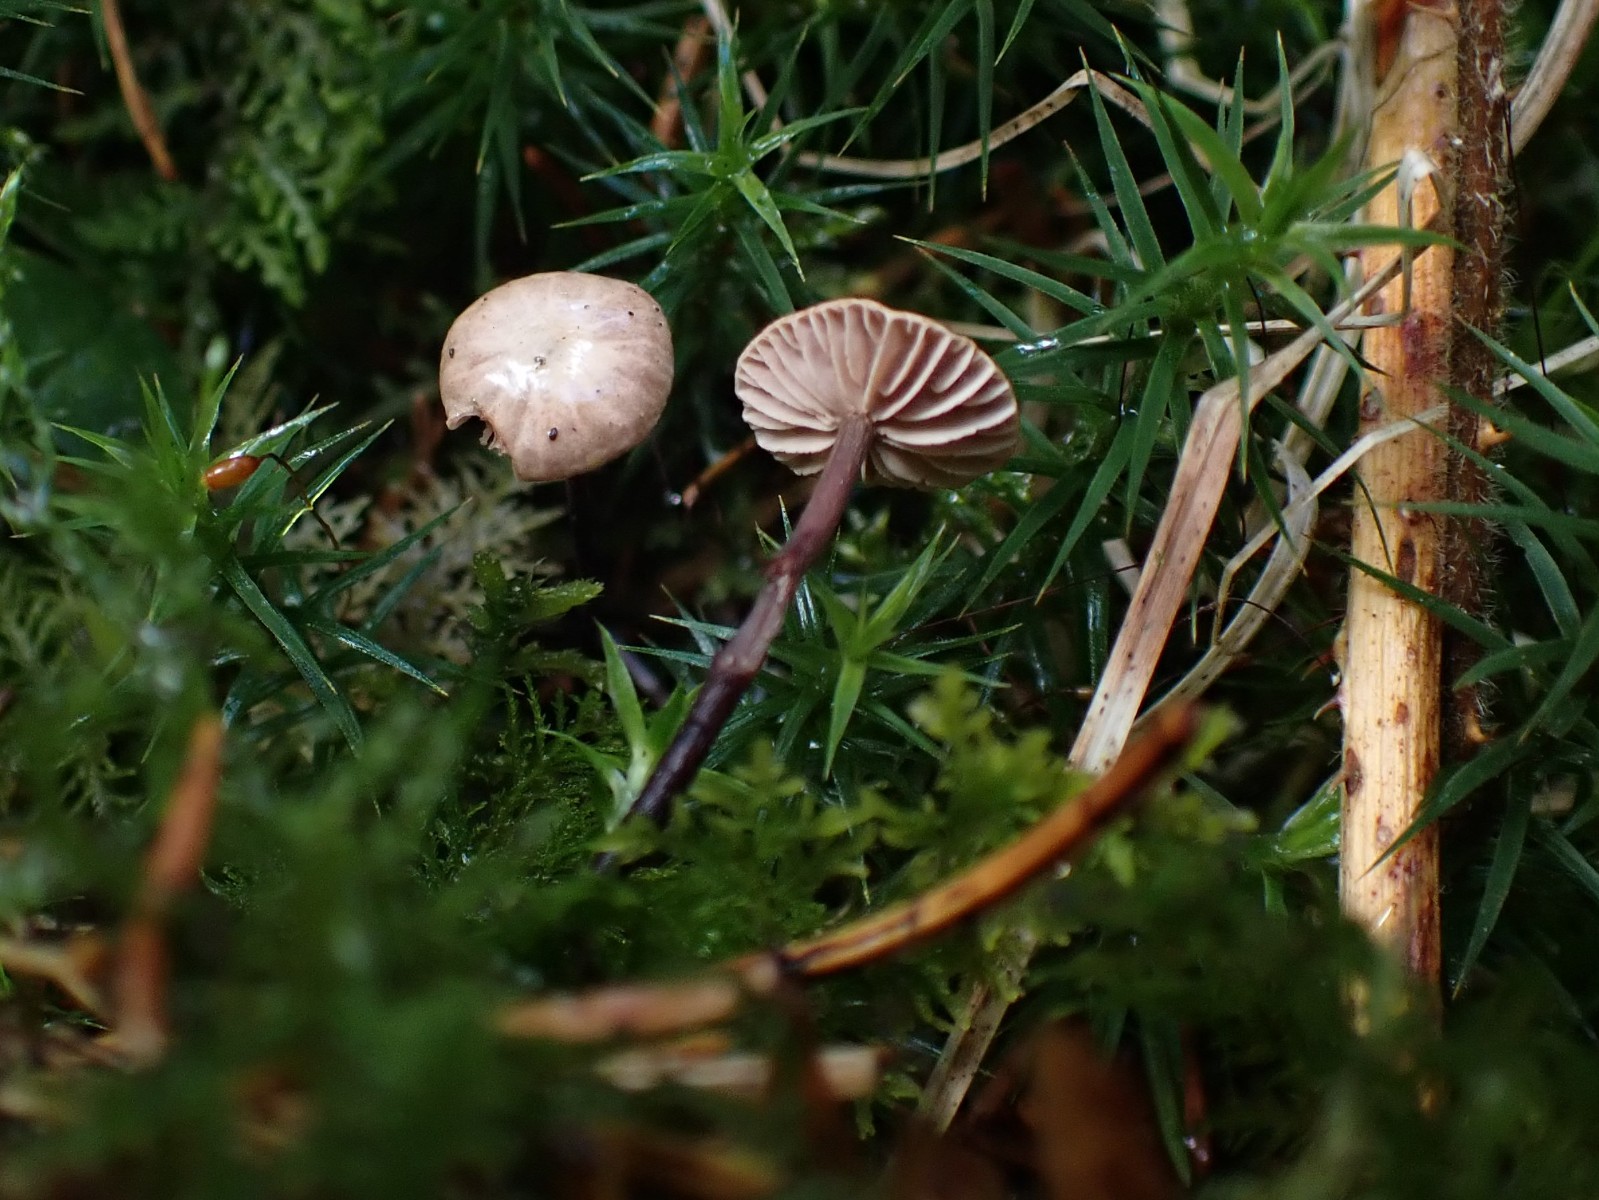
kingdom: Fungi
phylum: Basidiomycota
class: Agaricomycetes
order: Agaricales
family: Omphalotaceae
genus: Paragymnopus
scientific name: Paragymnopus perforans
